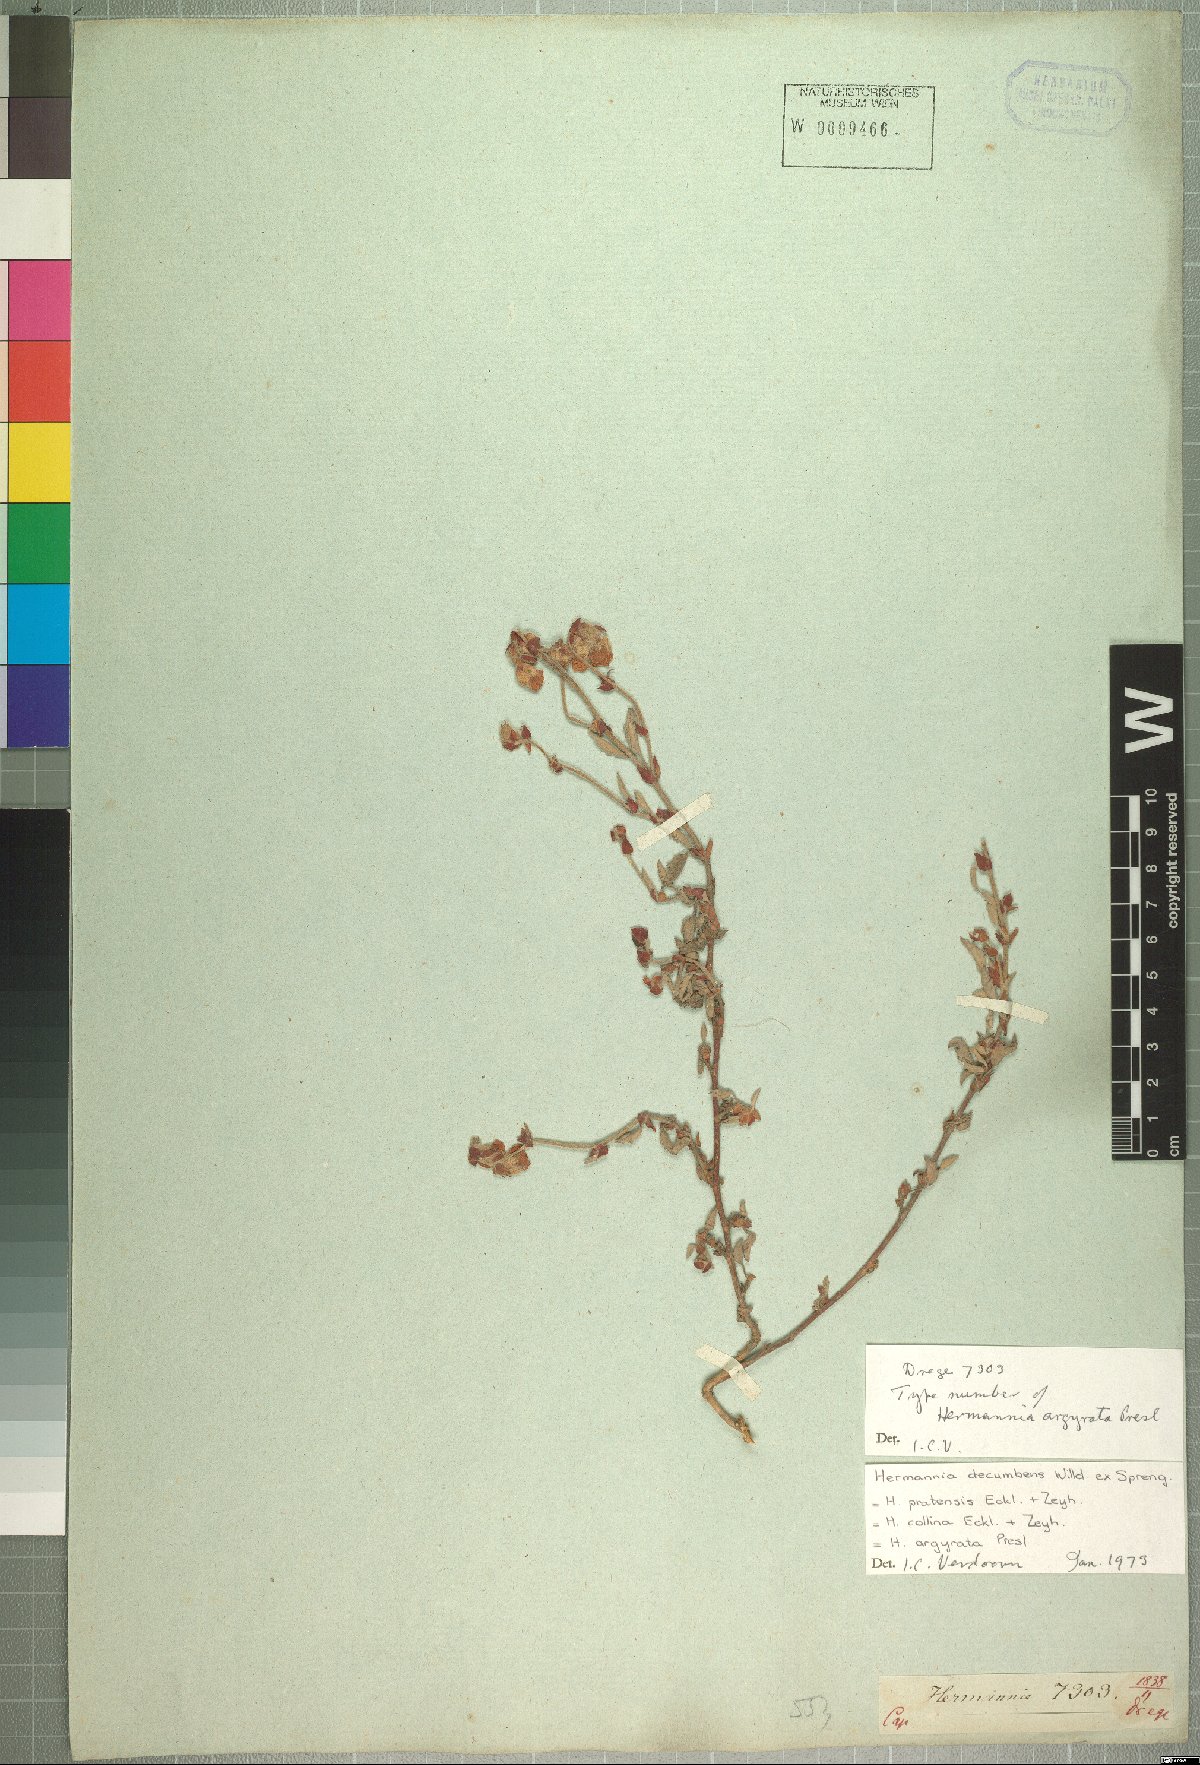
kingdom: Plantae
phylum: Tracheophyta
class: Magnoliopsida
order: Malvales
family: Malvaceae
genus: Hermannia
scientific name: Hermannia decumbens
